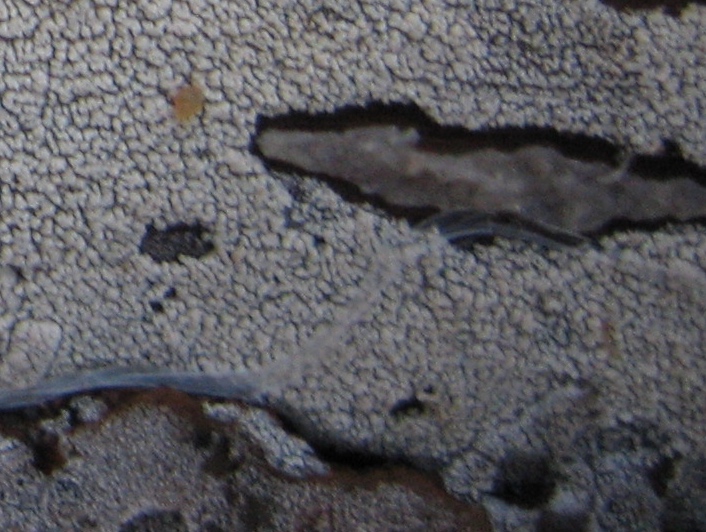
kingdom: Fungi
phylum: Basidiomycota
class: Agaricomycetes
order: Corticiales
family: Corticiaceae
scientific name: Corticiaceae
